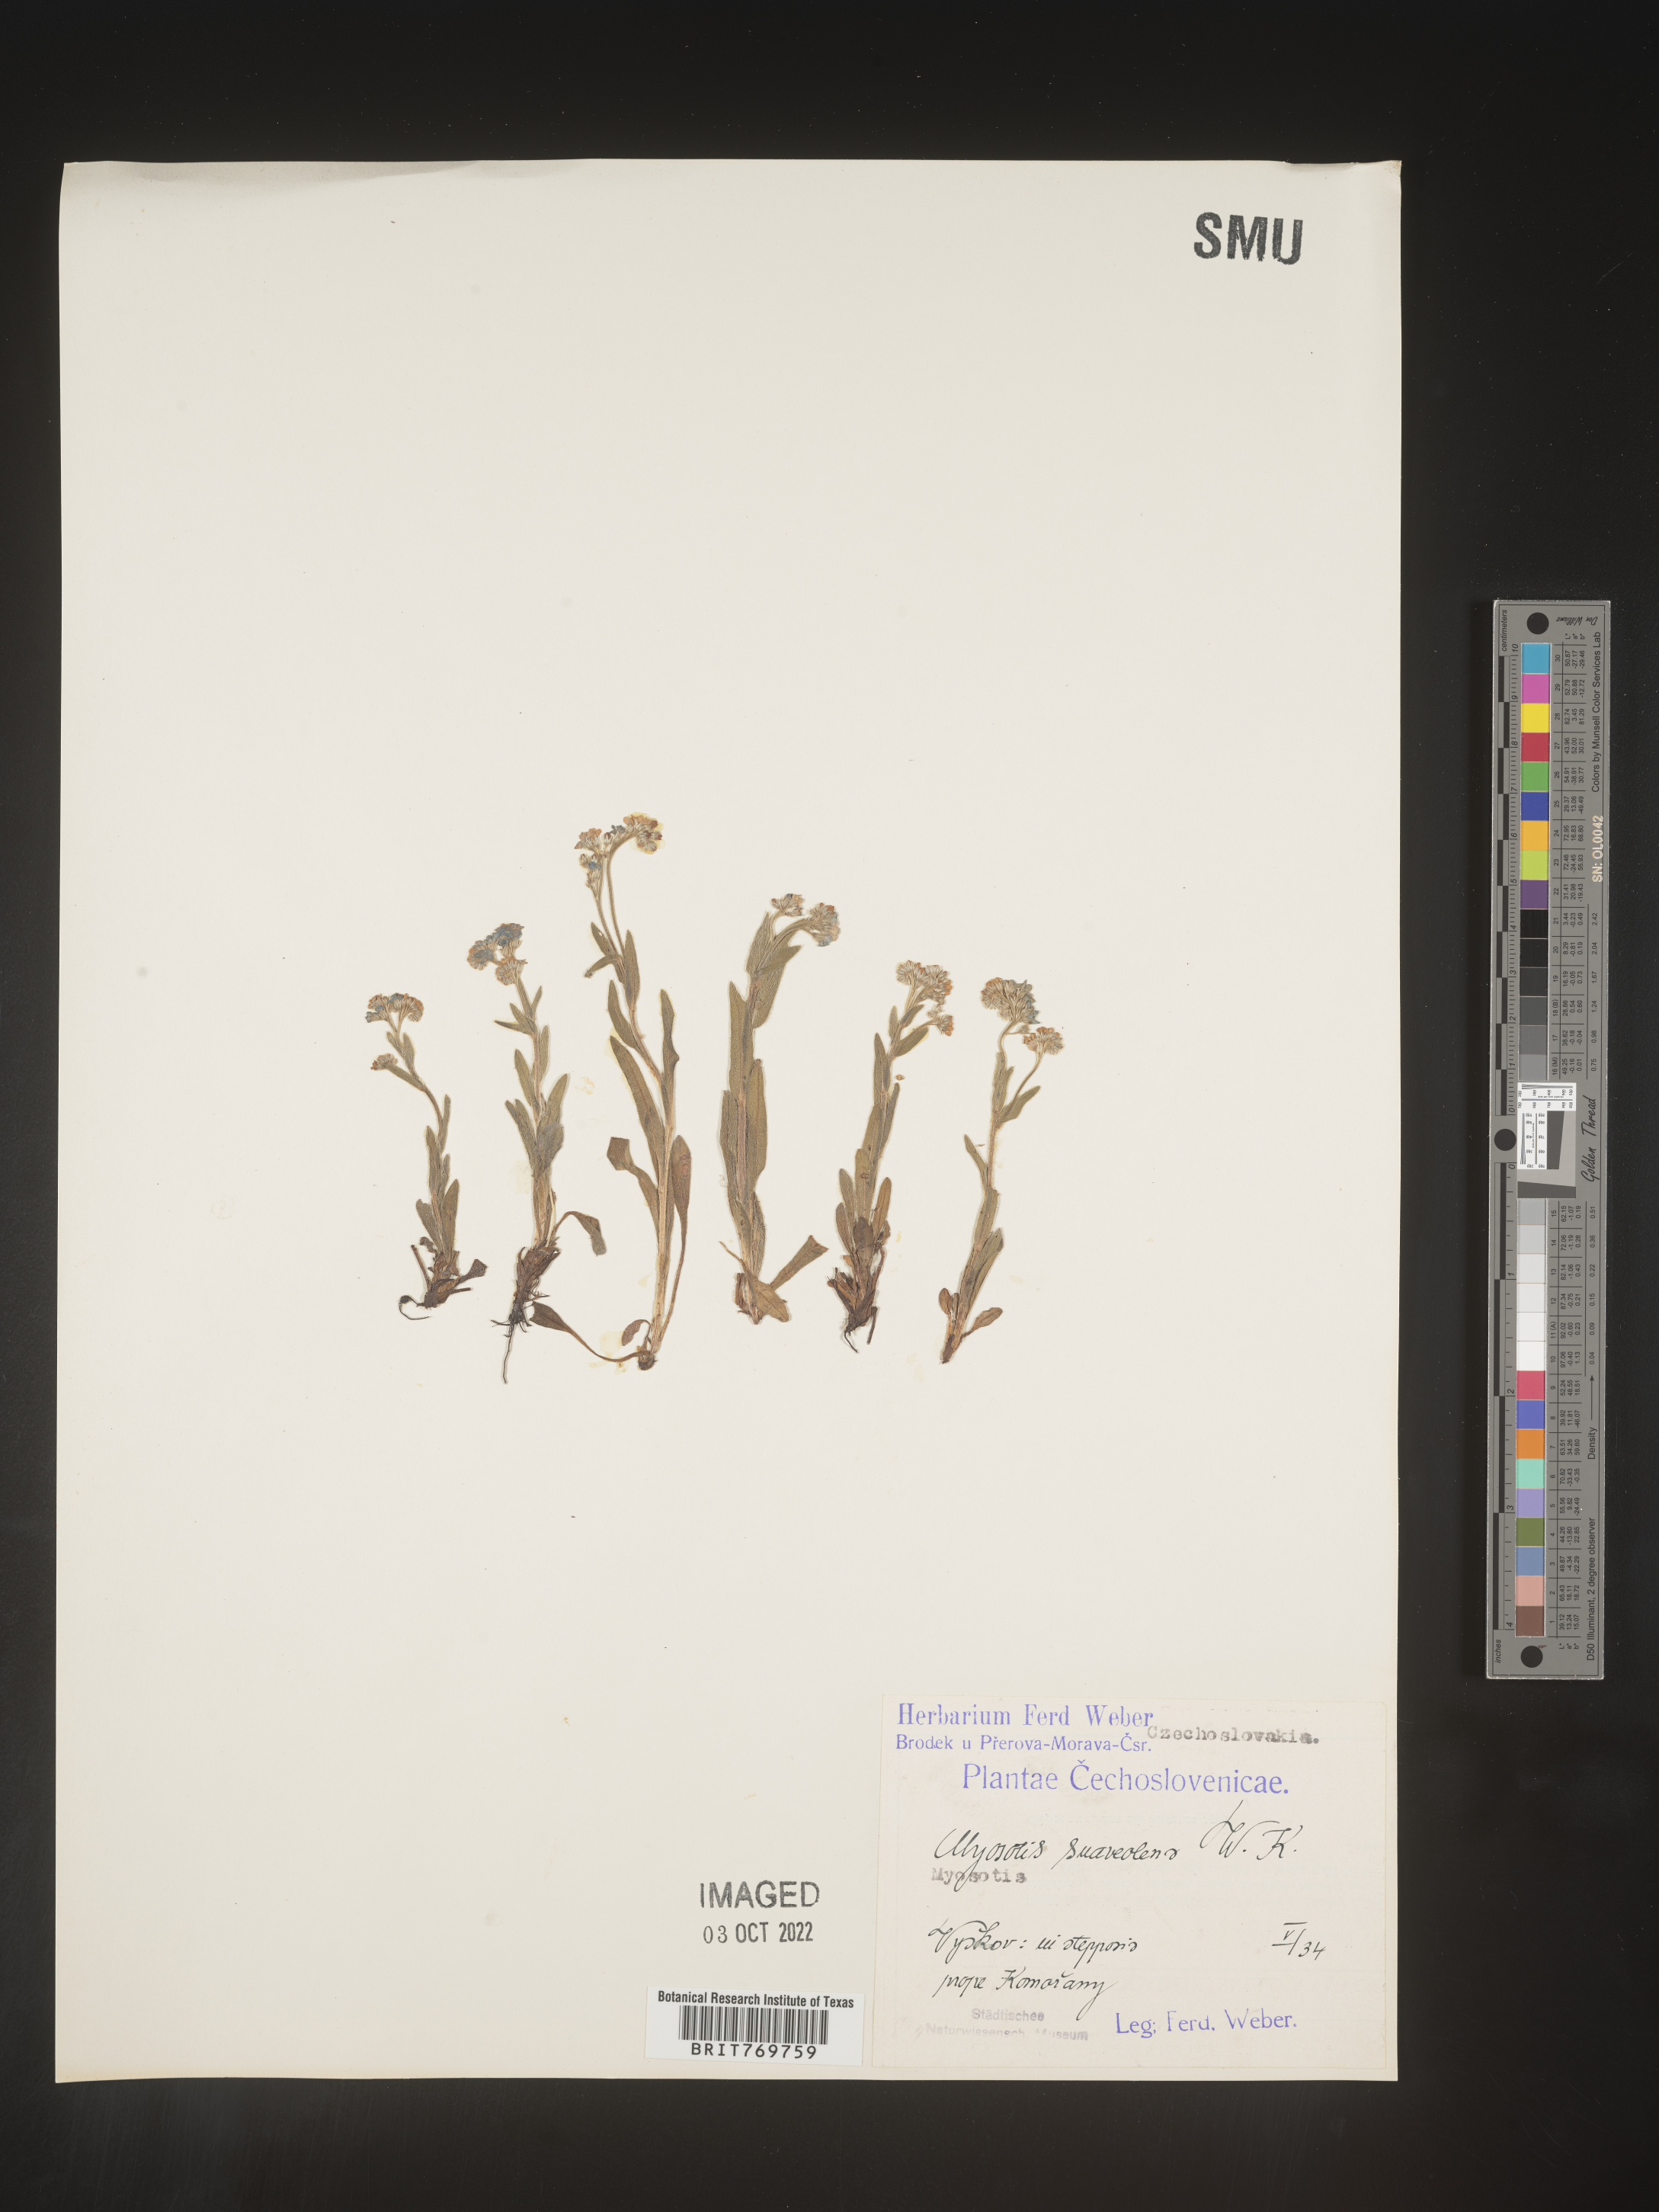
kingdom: Plantae
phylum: Tracheophyta
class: Magnoliopsida
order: Boraginales
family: Boraginaceae
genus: Myosotis
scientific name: Myosotis
